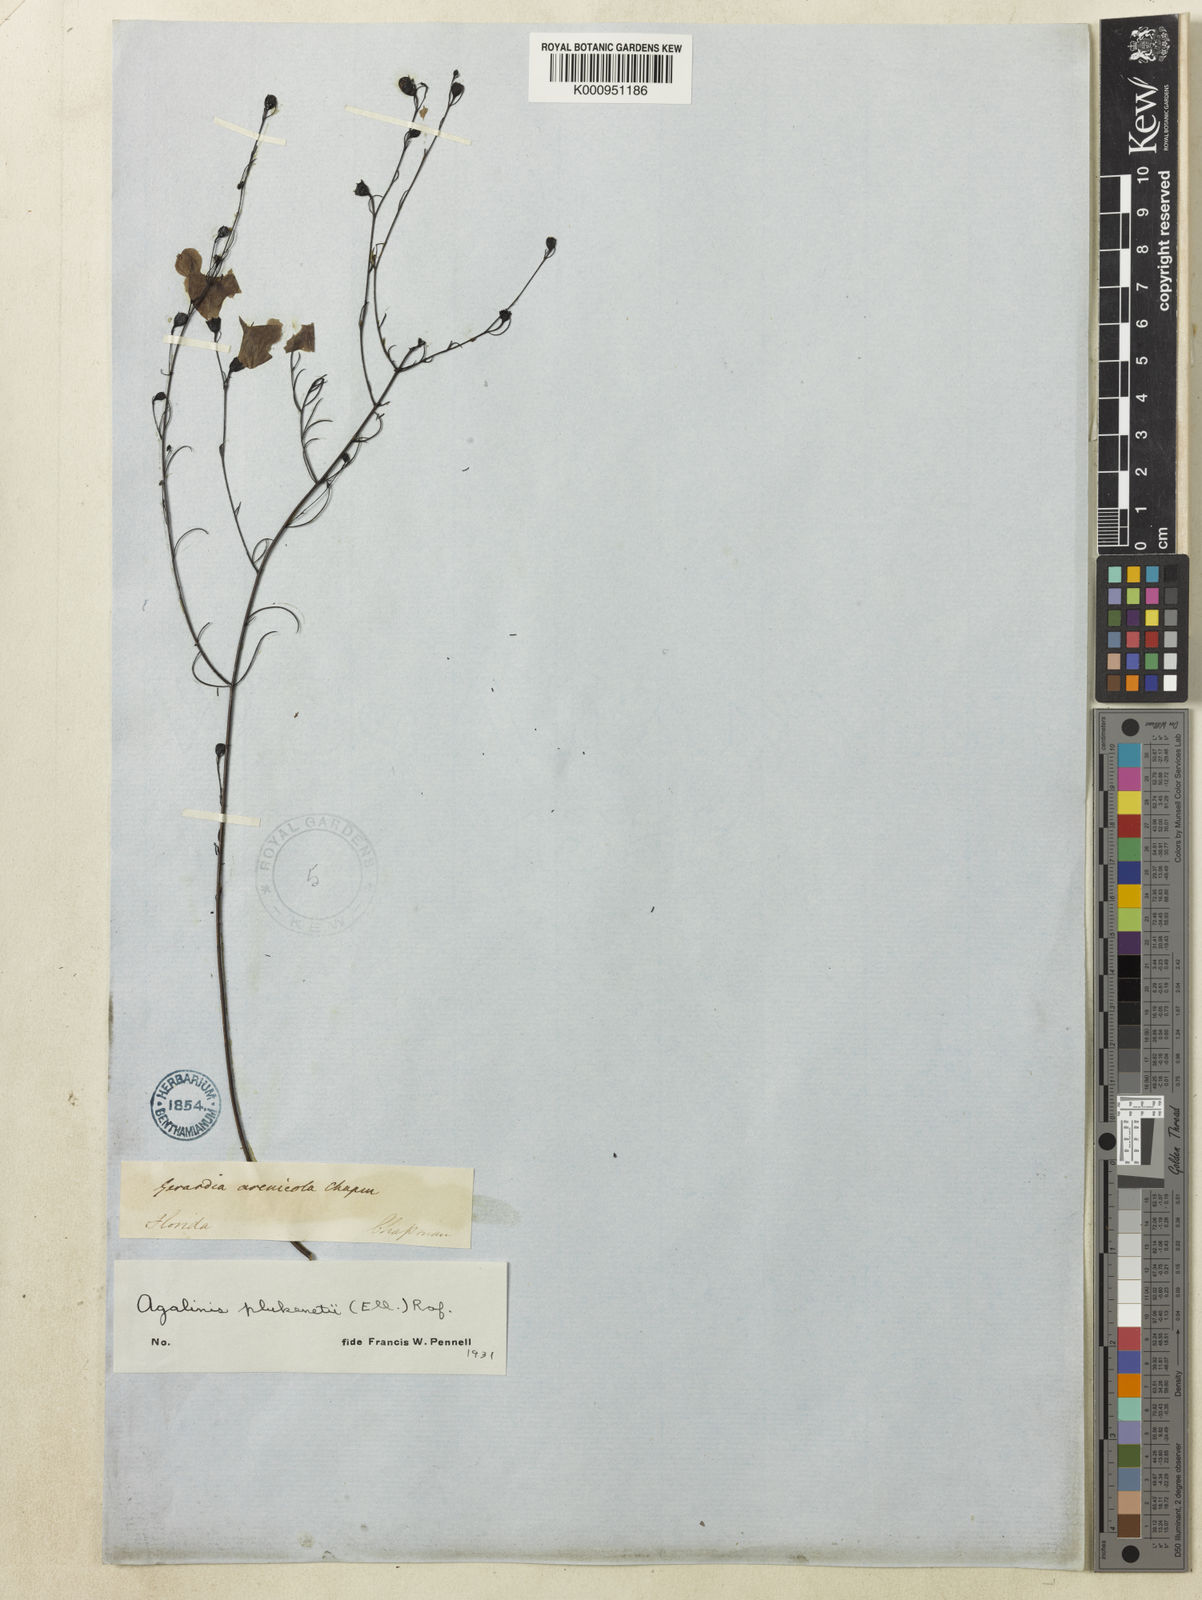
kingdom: Plantae
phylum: Tracheophyta
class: Magnoliopsida
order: Lamiales
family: Orobanchaceae
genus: Agalinis
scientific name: Agalinis filifolia
